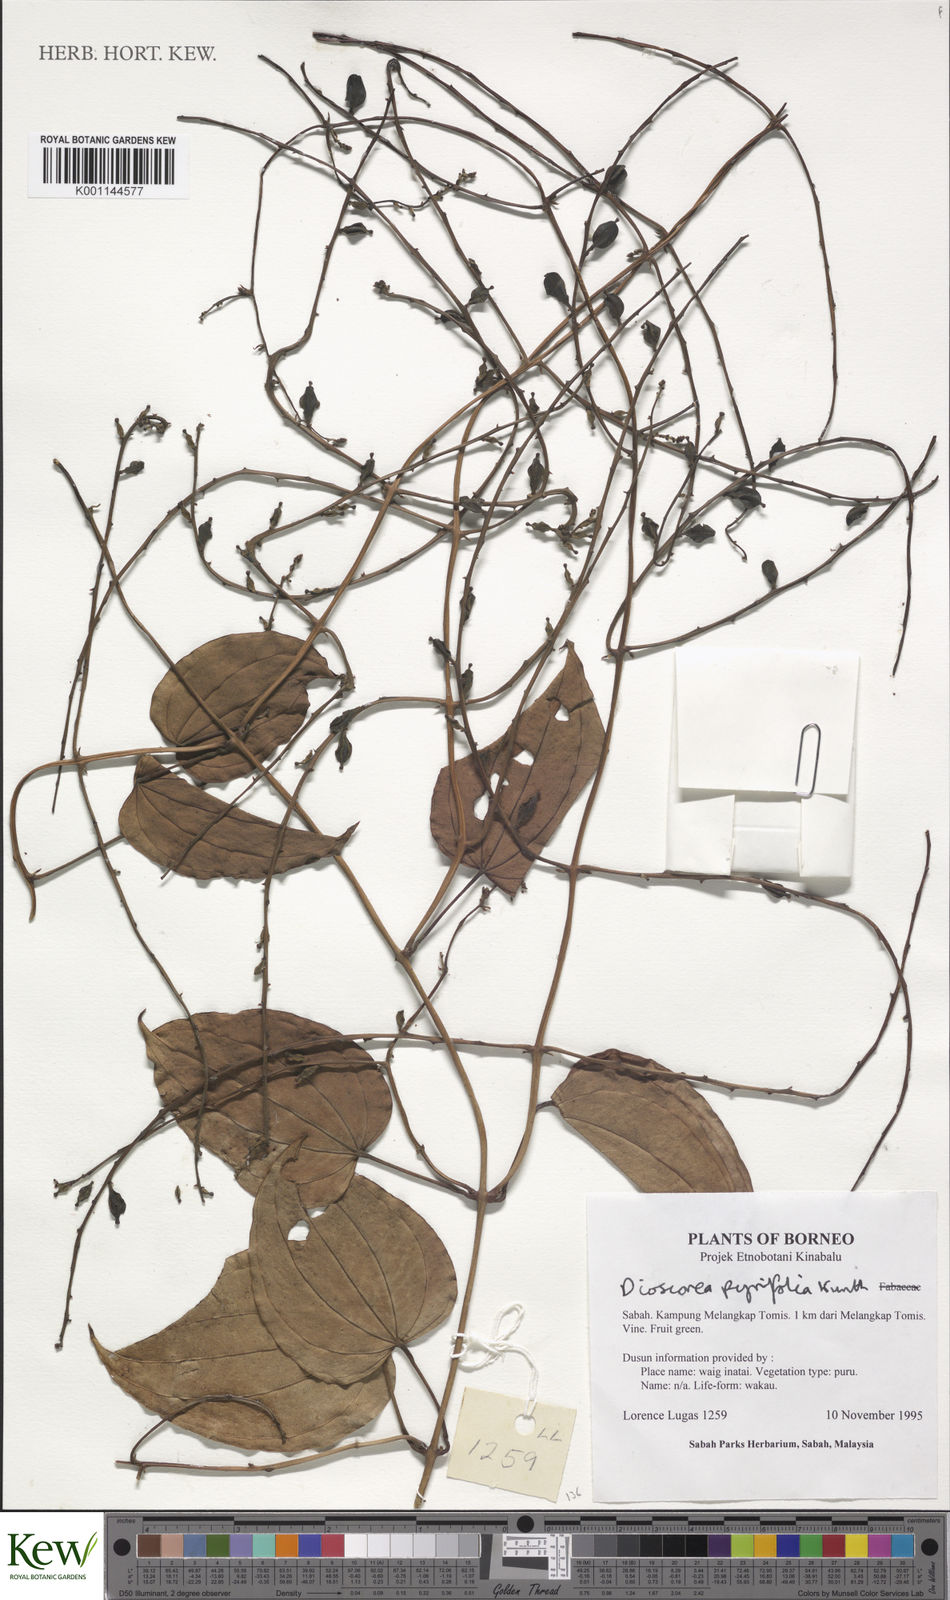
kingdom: Plantae
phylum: Tracheophyta
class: Liliopsida
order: Dioscoreales
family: Dioscoreaceae
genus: Dioscorea
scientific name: Dioscorea pyrifolia
